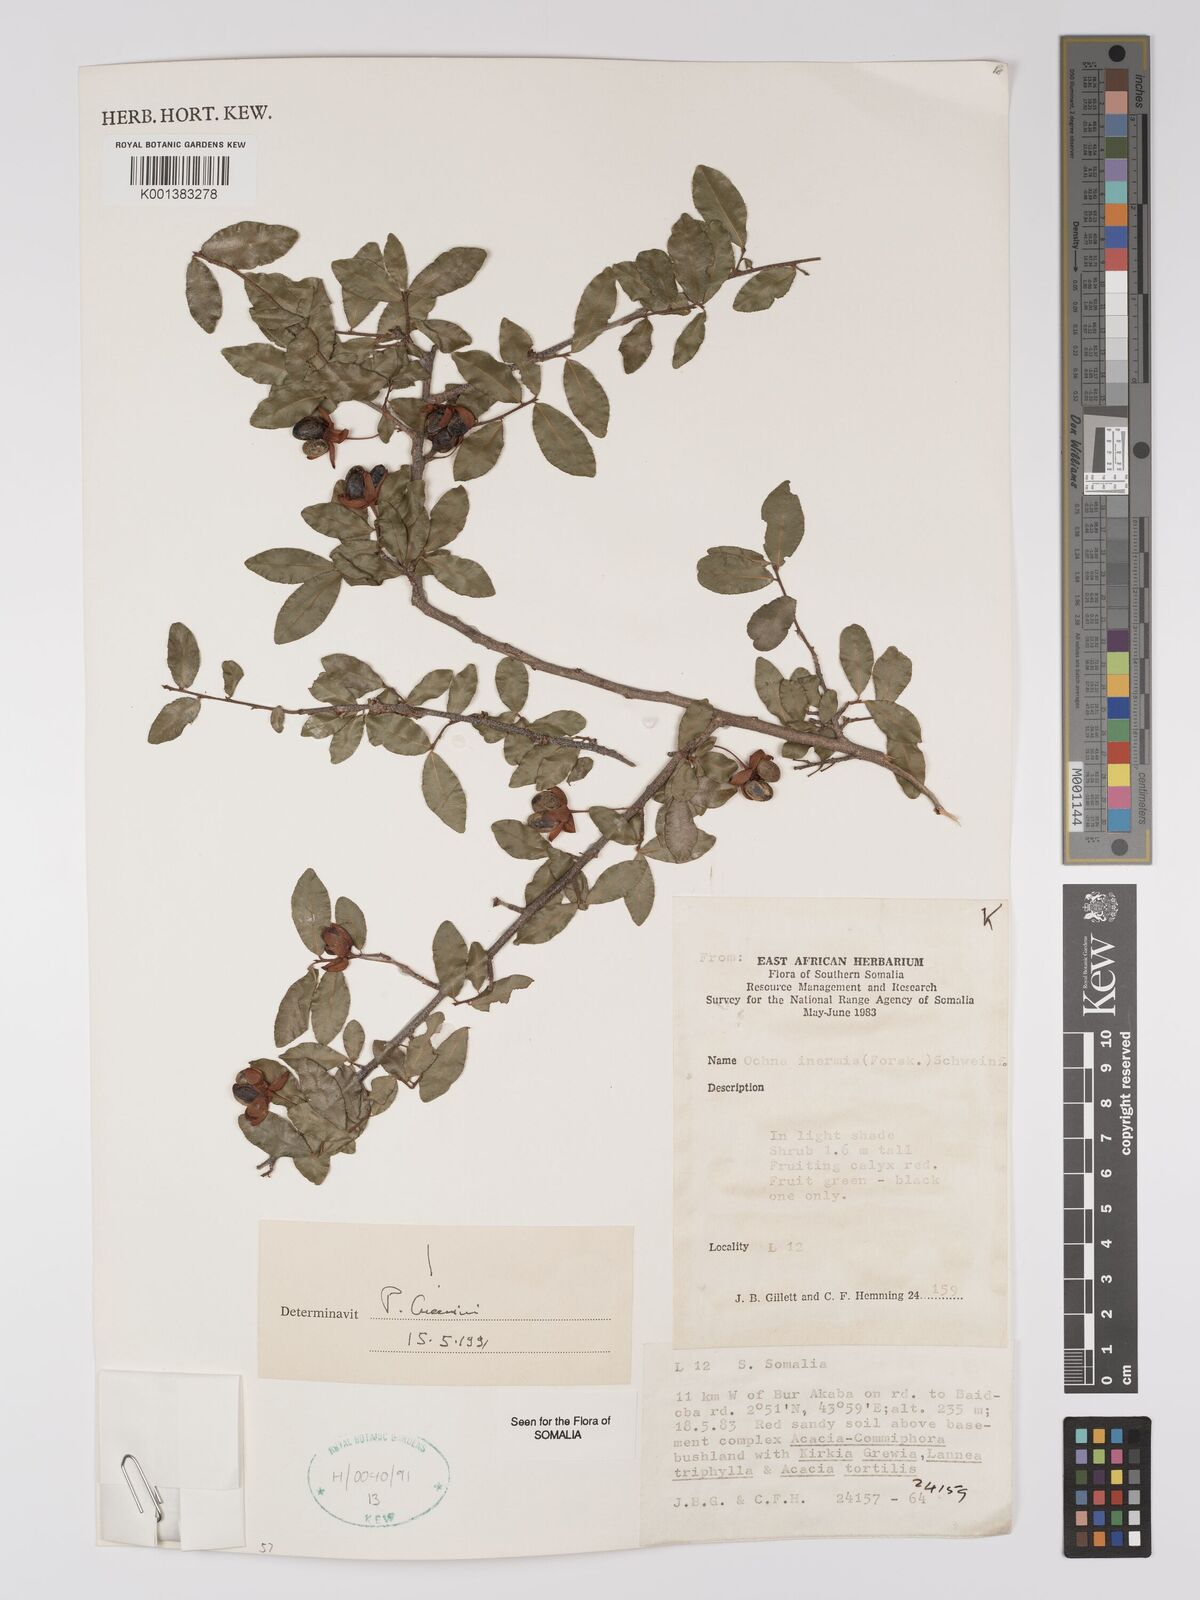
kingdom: Plantae
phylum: Tracheophyta
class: Magnoliopsida
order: Malpighiales
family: Ochnaceae
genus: Ochna
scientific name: Ochna inermis
